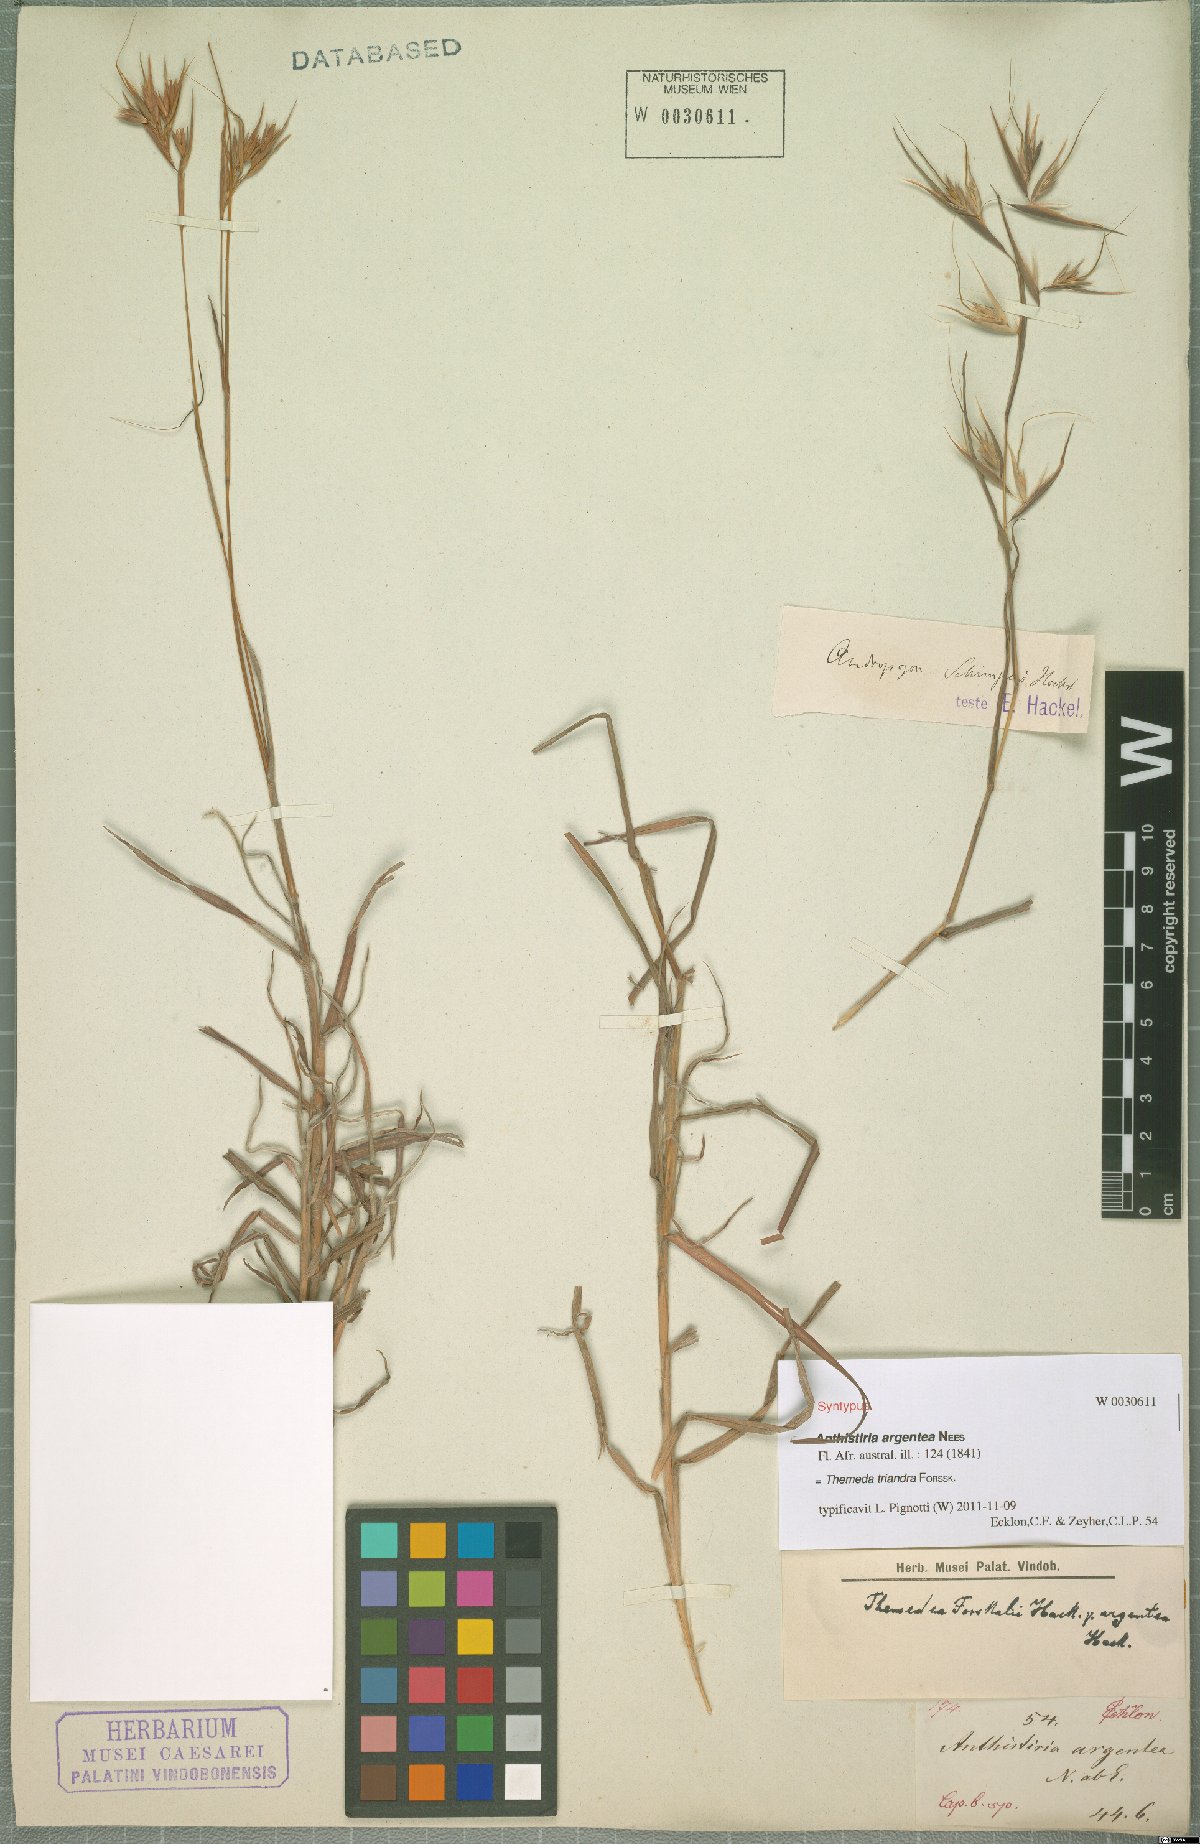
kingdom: Plantae
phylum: Tracheophyta
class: Liliopsida
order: Poales
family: Poaceae
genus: Themeda
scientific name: Themeda triandra
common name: Kangaroo grass
